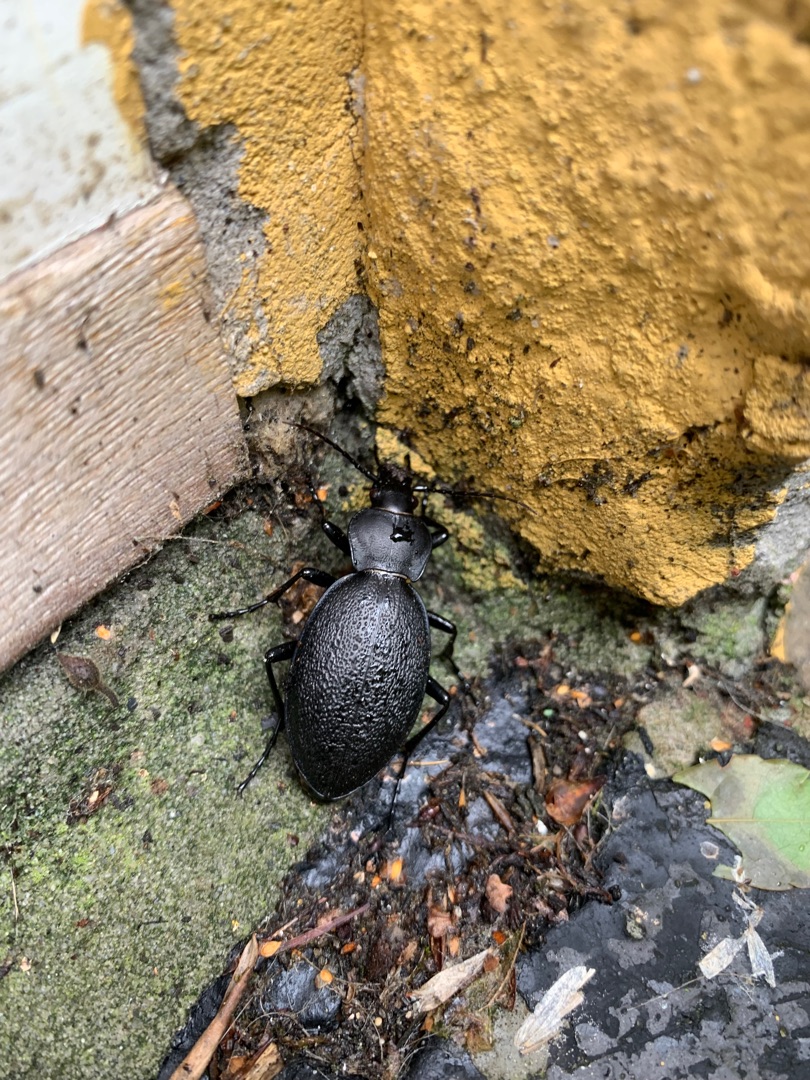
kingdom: Animalia
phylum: Arthropoda
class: Insecta
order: Coleoptera
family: Carabidae
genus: Carabus
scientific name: Carabus coriaceus
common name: Læderløber
